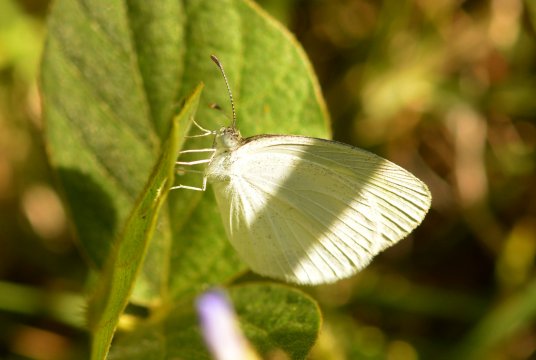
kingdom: Animalia
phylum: Arthropoda
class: Insecta
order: Lepidoptera
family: Pieridae
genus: Eurema
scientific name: Eurema
